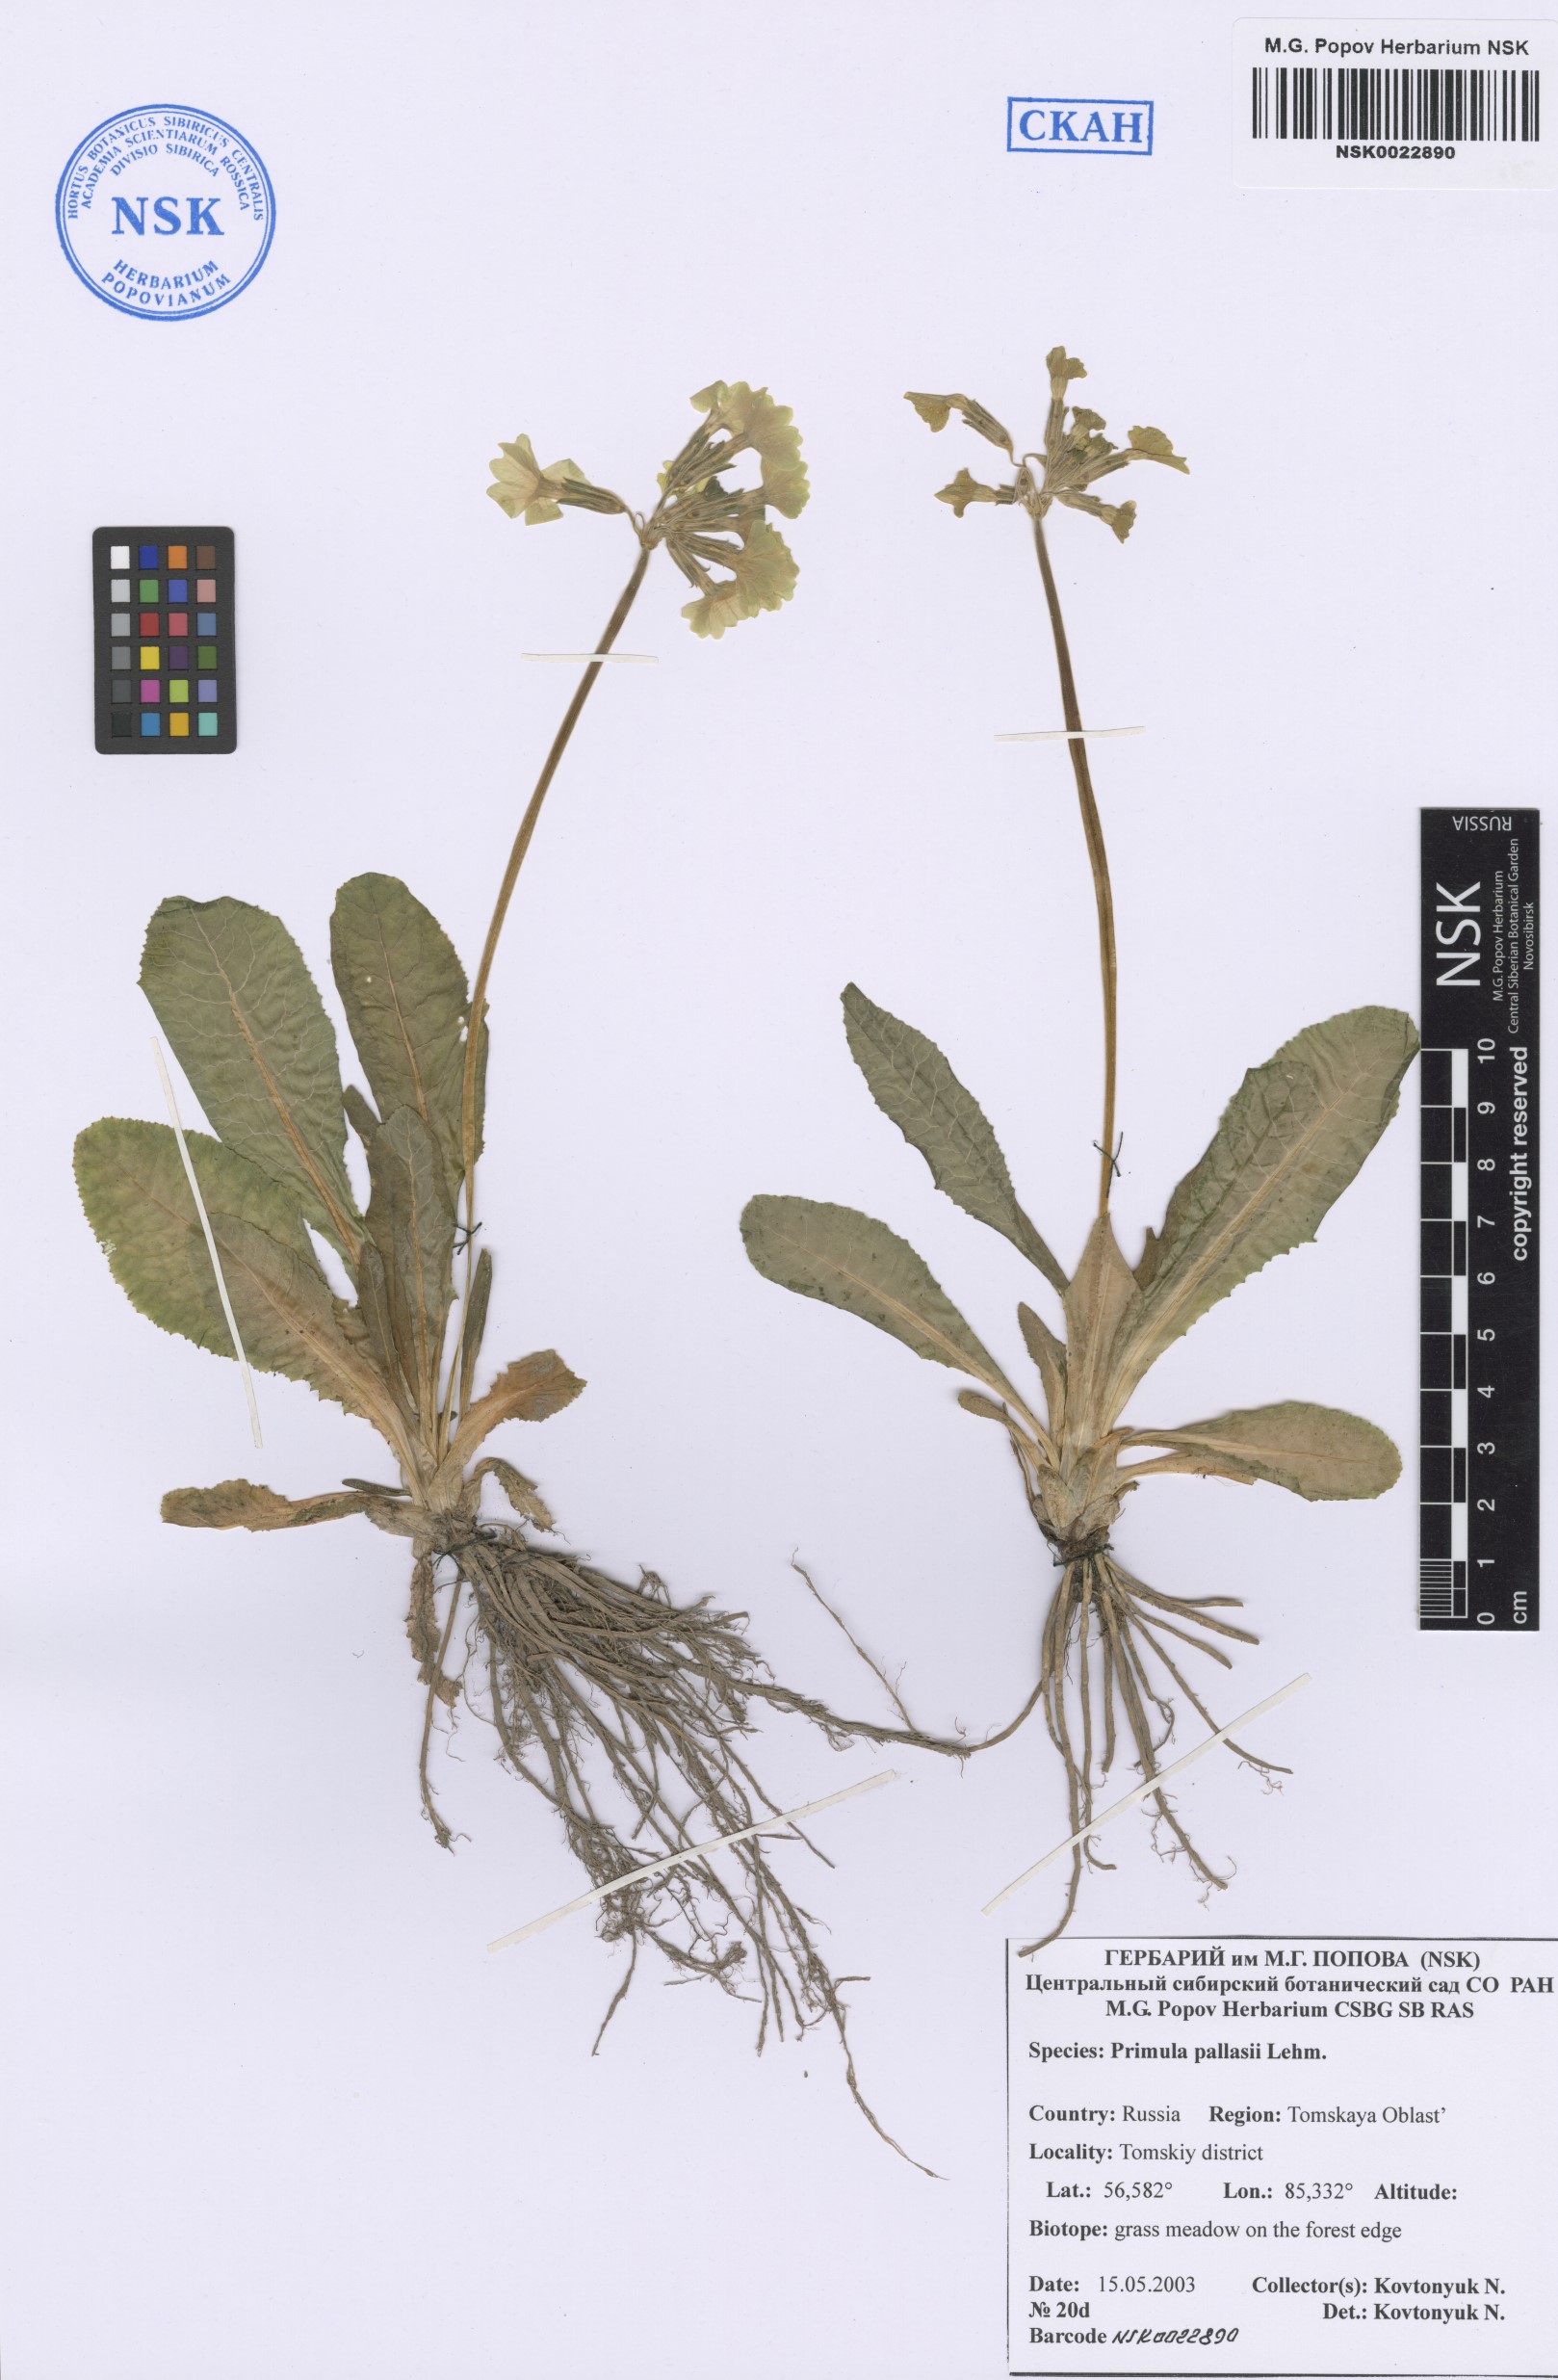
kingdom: Plantae
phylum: Tracheophyta
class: Magnoliopsida
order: Ericales
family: Primulaceae
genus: Primula
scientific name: Primula elatior
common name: Oxlip
